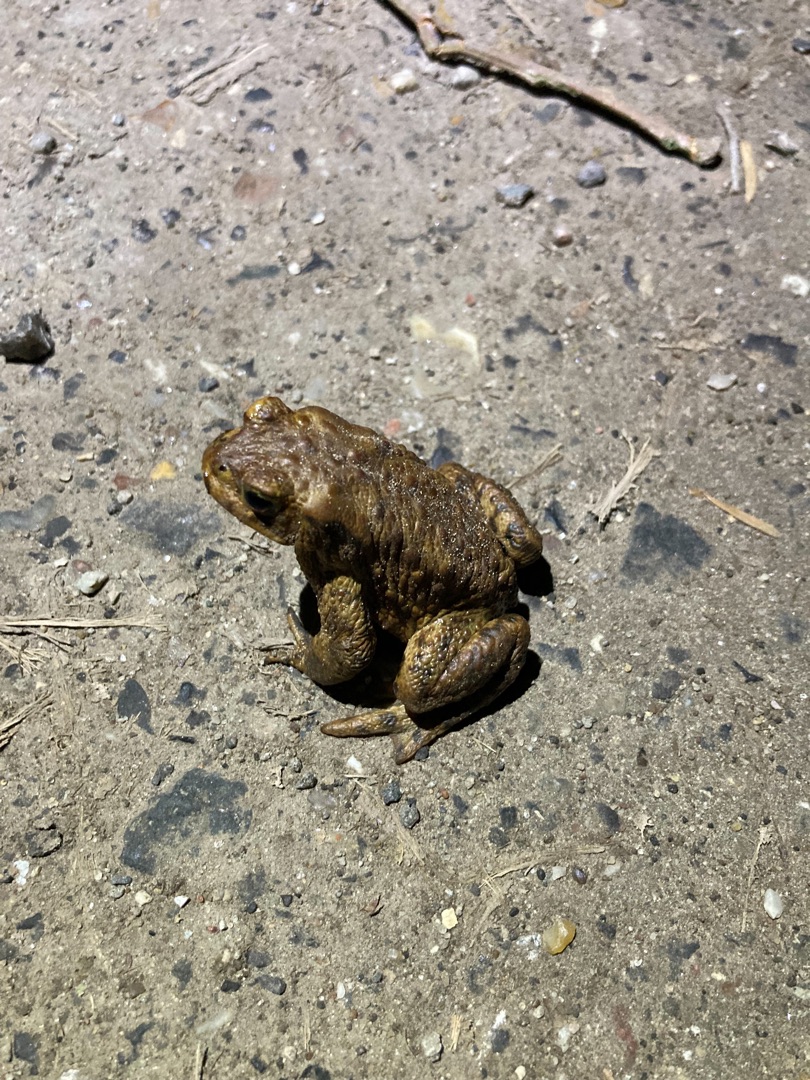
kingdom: Animalia
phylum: Chordata
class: Amphibia
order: Anura
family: Bufonidae
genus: Bufo
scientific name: Bufo bufo
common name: Skrubtudse
